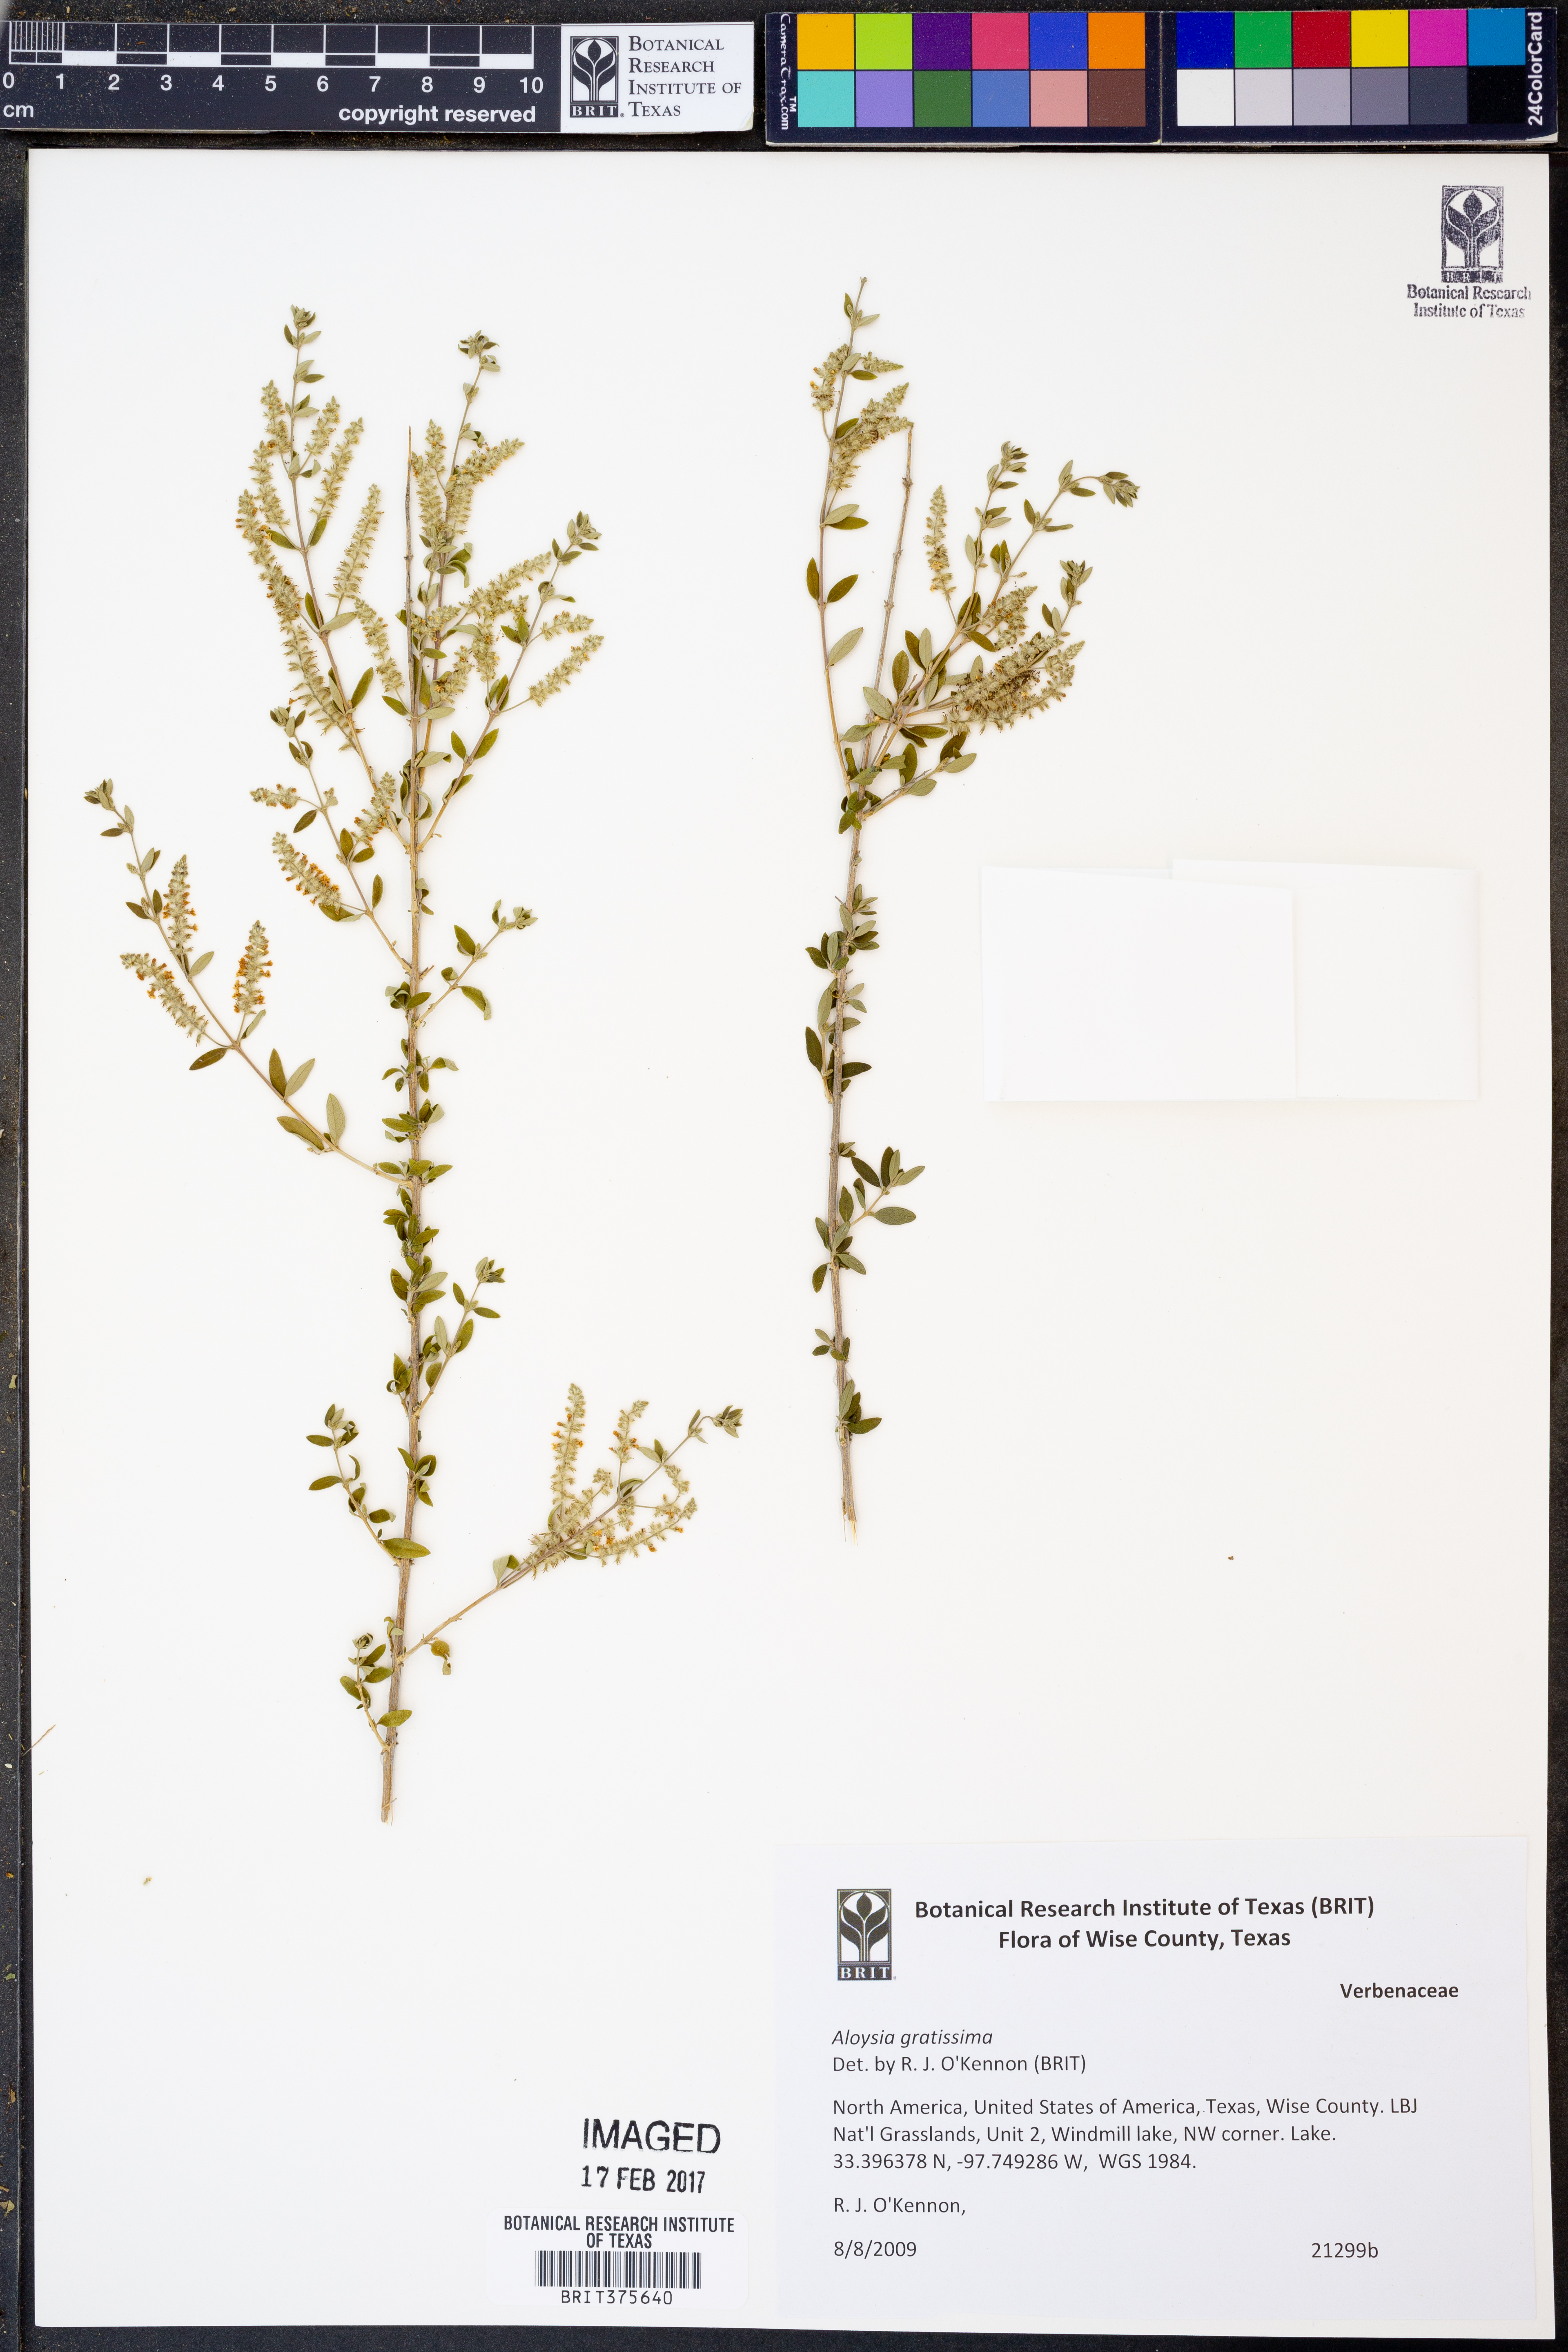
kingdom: Plantae
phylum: Tracheophyta
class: Magnoliopsida
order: Lamiales
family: Verbenaceae
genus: Aloysia
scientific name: Aloysia gratissima
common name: Common bee-brush
